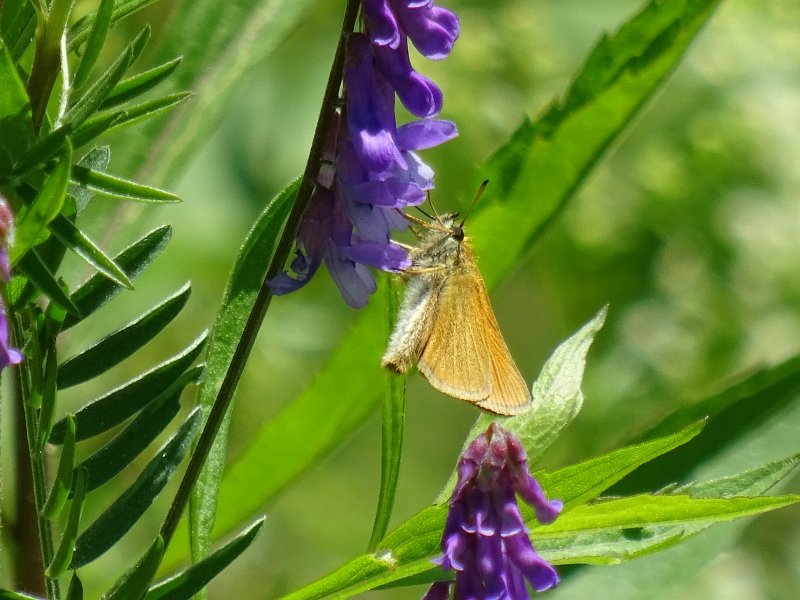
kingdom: Animalia
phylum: Arthropoda
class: Insecta
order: Lepidoptera
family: Hesperiidae
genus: Thymelicus
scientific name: Thymelicus lineola
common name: European Skipper
